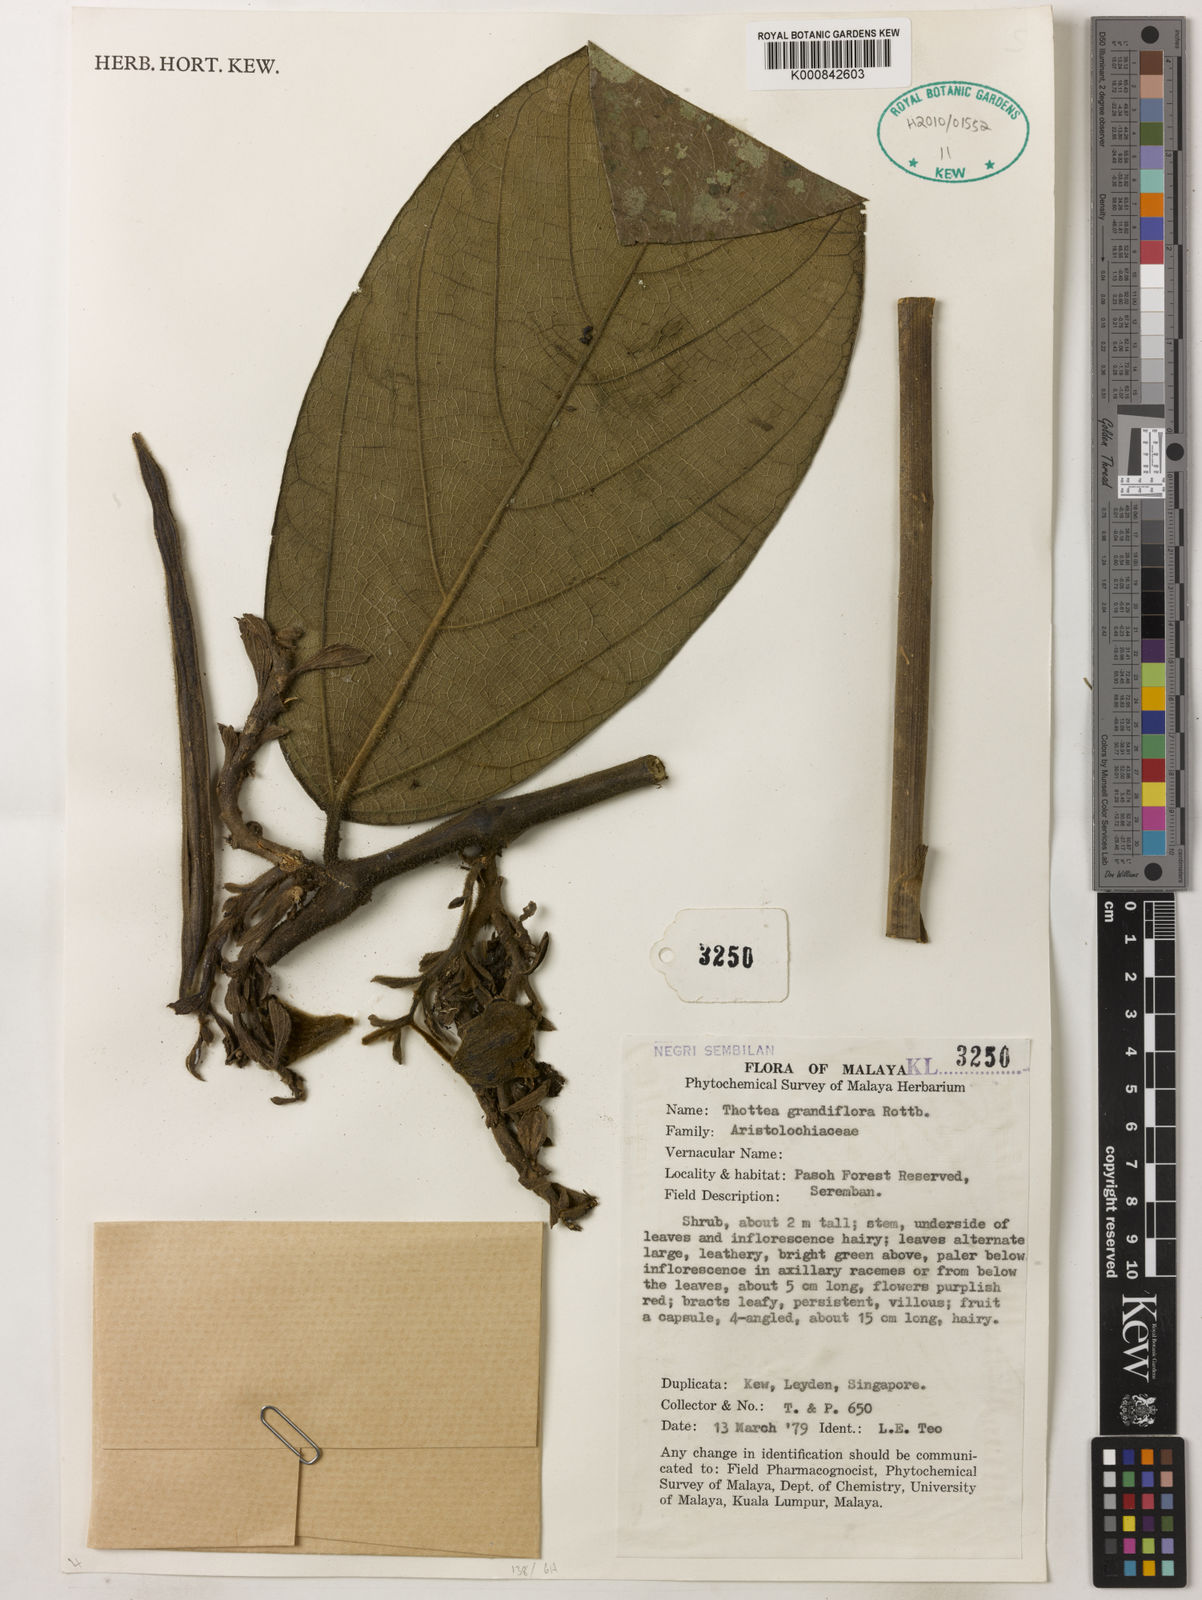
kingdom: Plantae
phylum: Tracheophyta
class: Magnoliopsida
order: Piperales
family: Aristolochiaceae
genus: Thottea
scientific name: Thottea grandiflora
